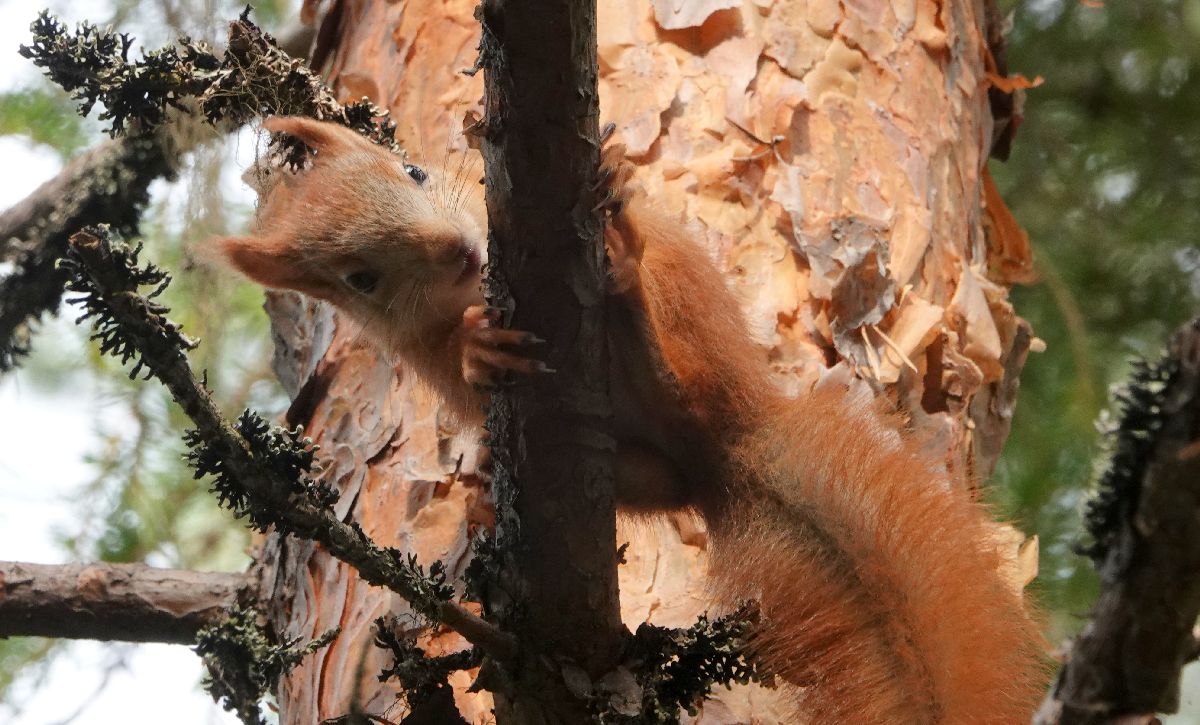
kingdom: Animalia
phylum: Chordata
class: Mammalia
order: Rodentia
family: Sciuridae
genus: Sciurus
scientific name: Sciurus vulgaris
